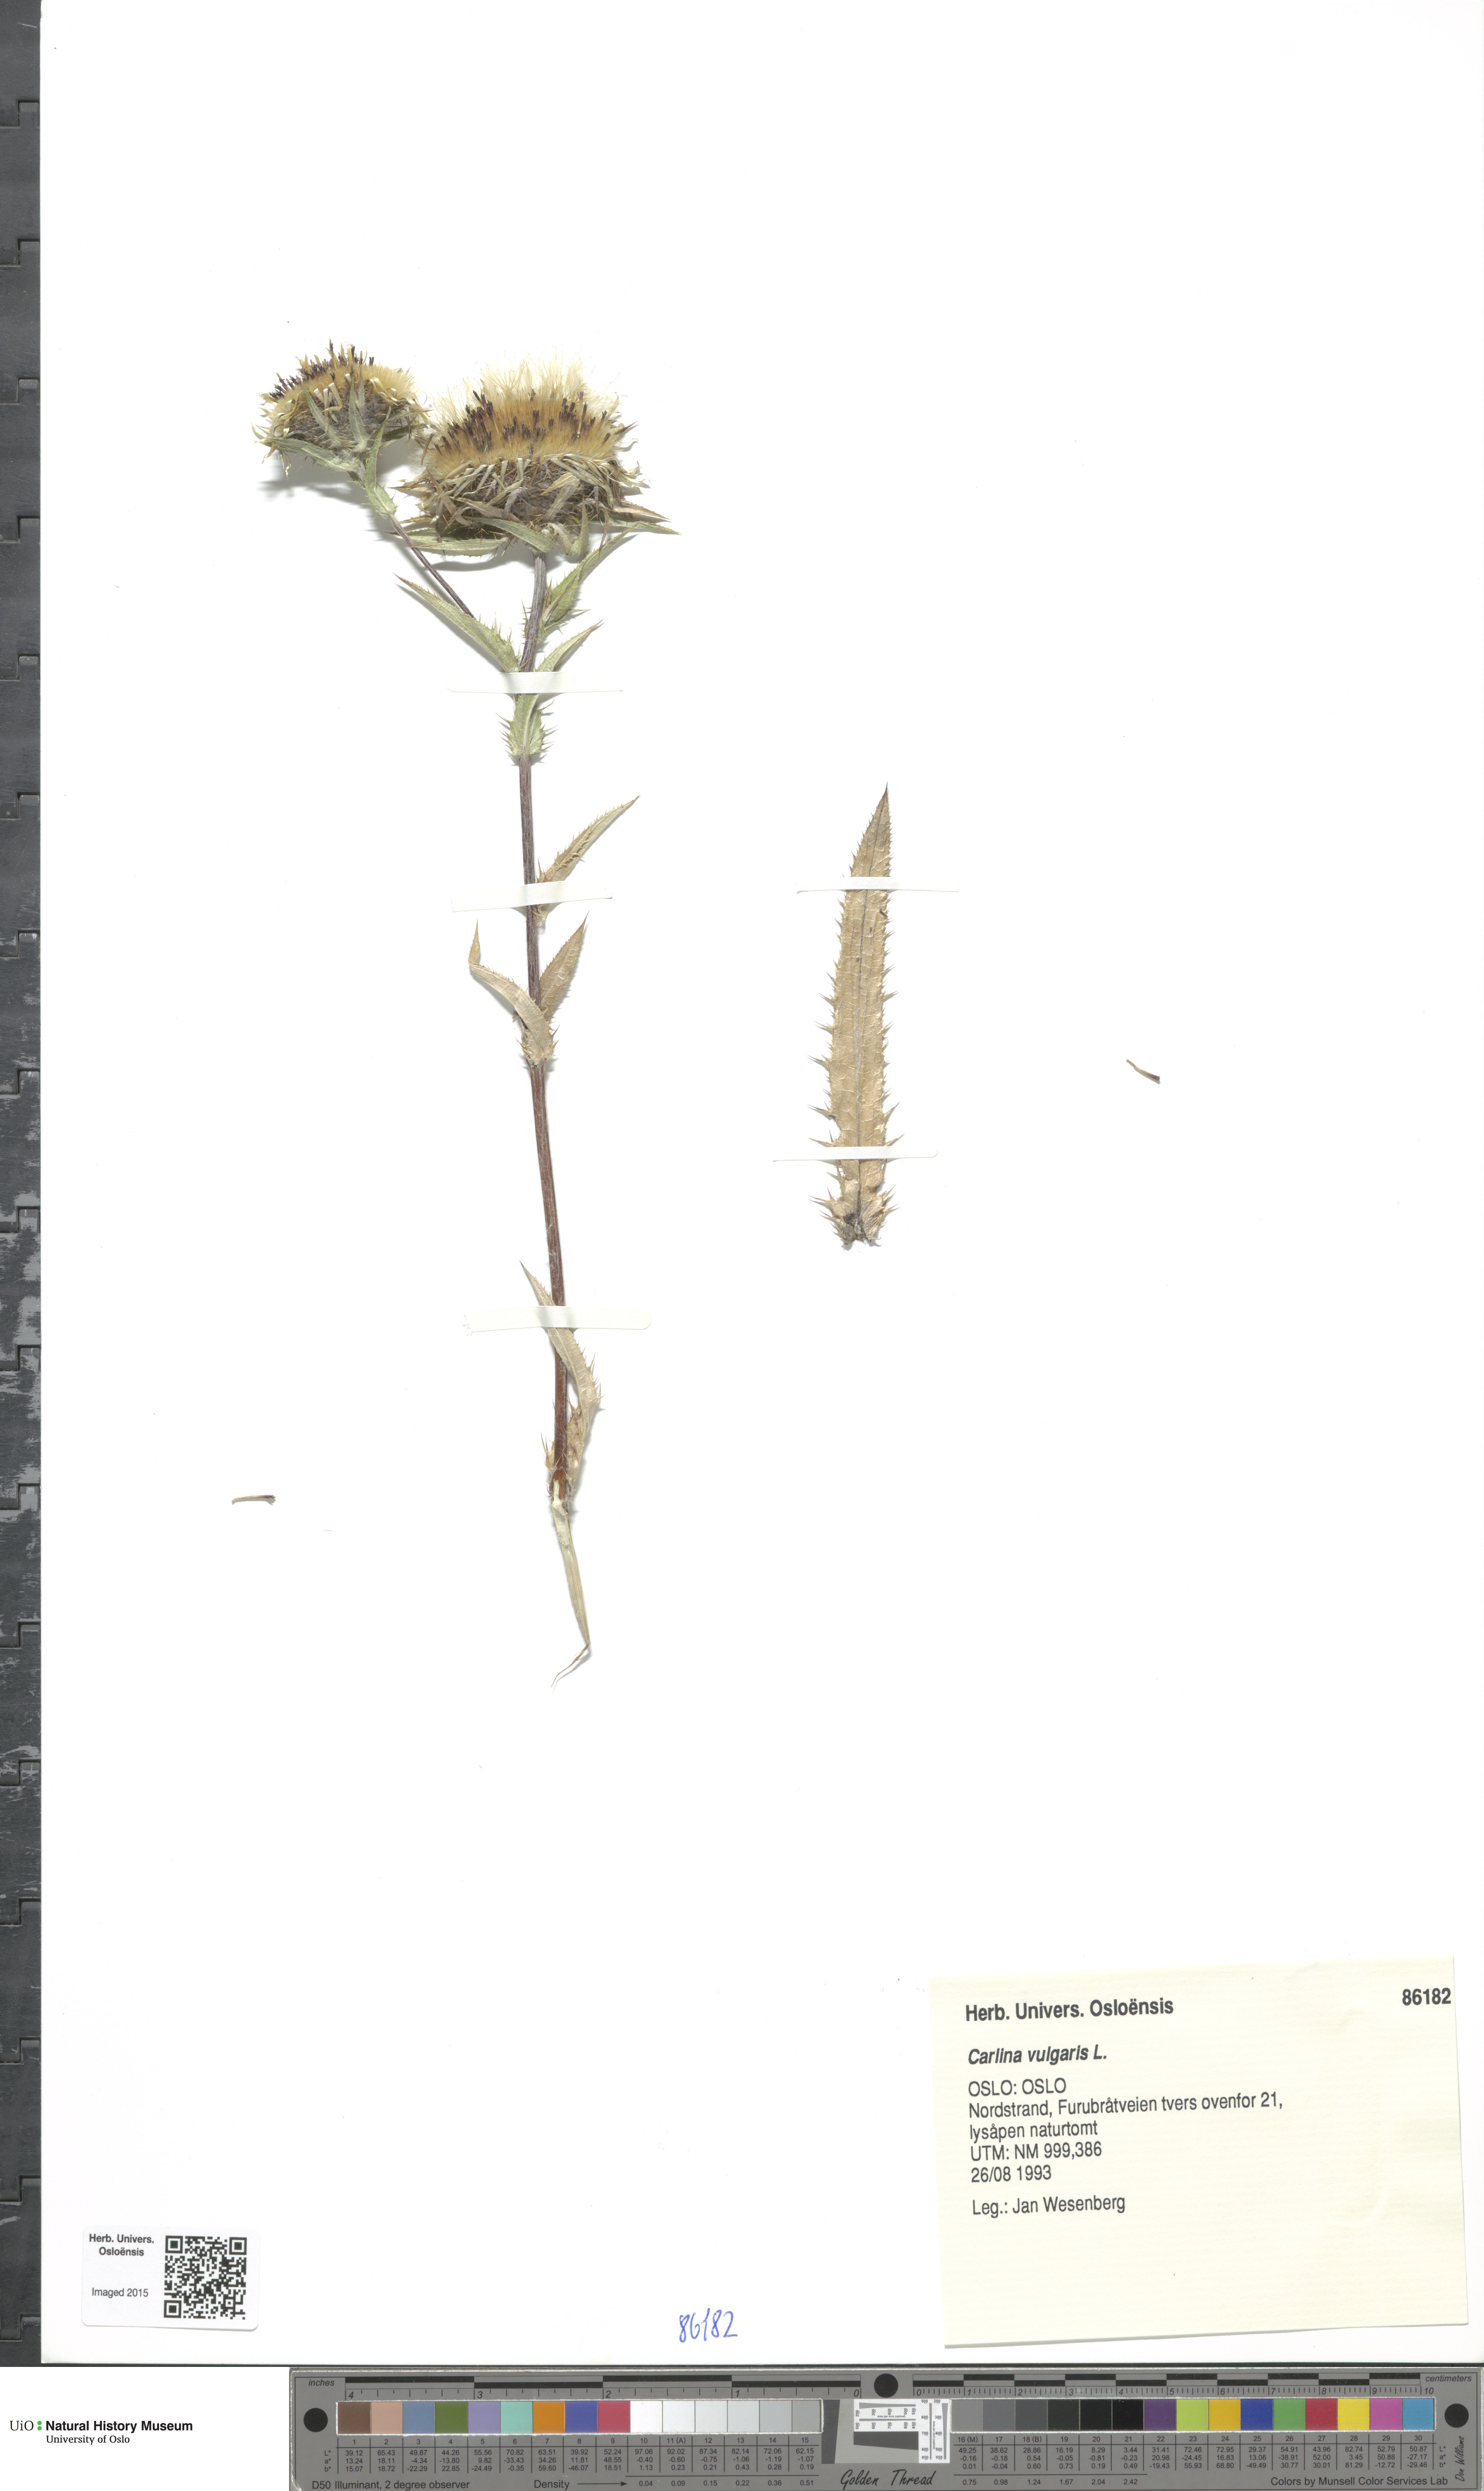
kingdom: Plantae
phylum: Tracheophyta
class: Magnoliopsida
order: Asterales
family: Asteraceae
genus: Carlina
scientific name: Carlina vulgaris
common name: Carline thistle
